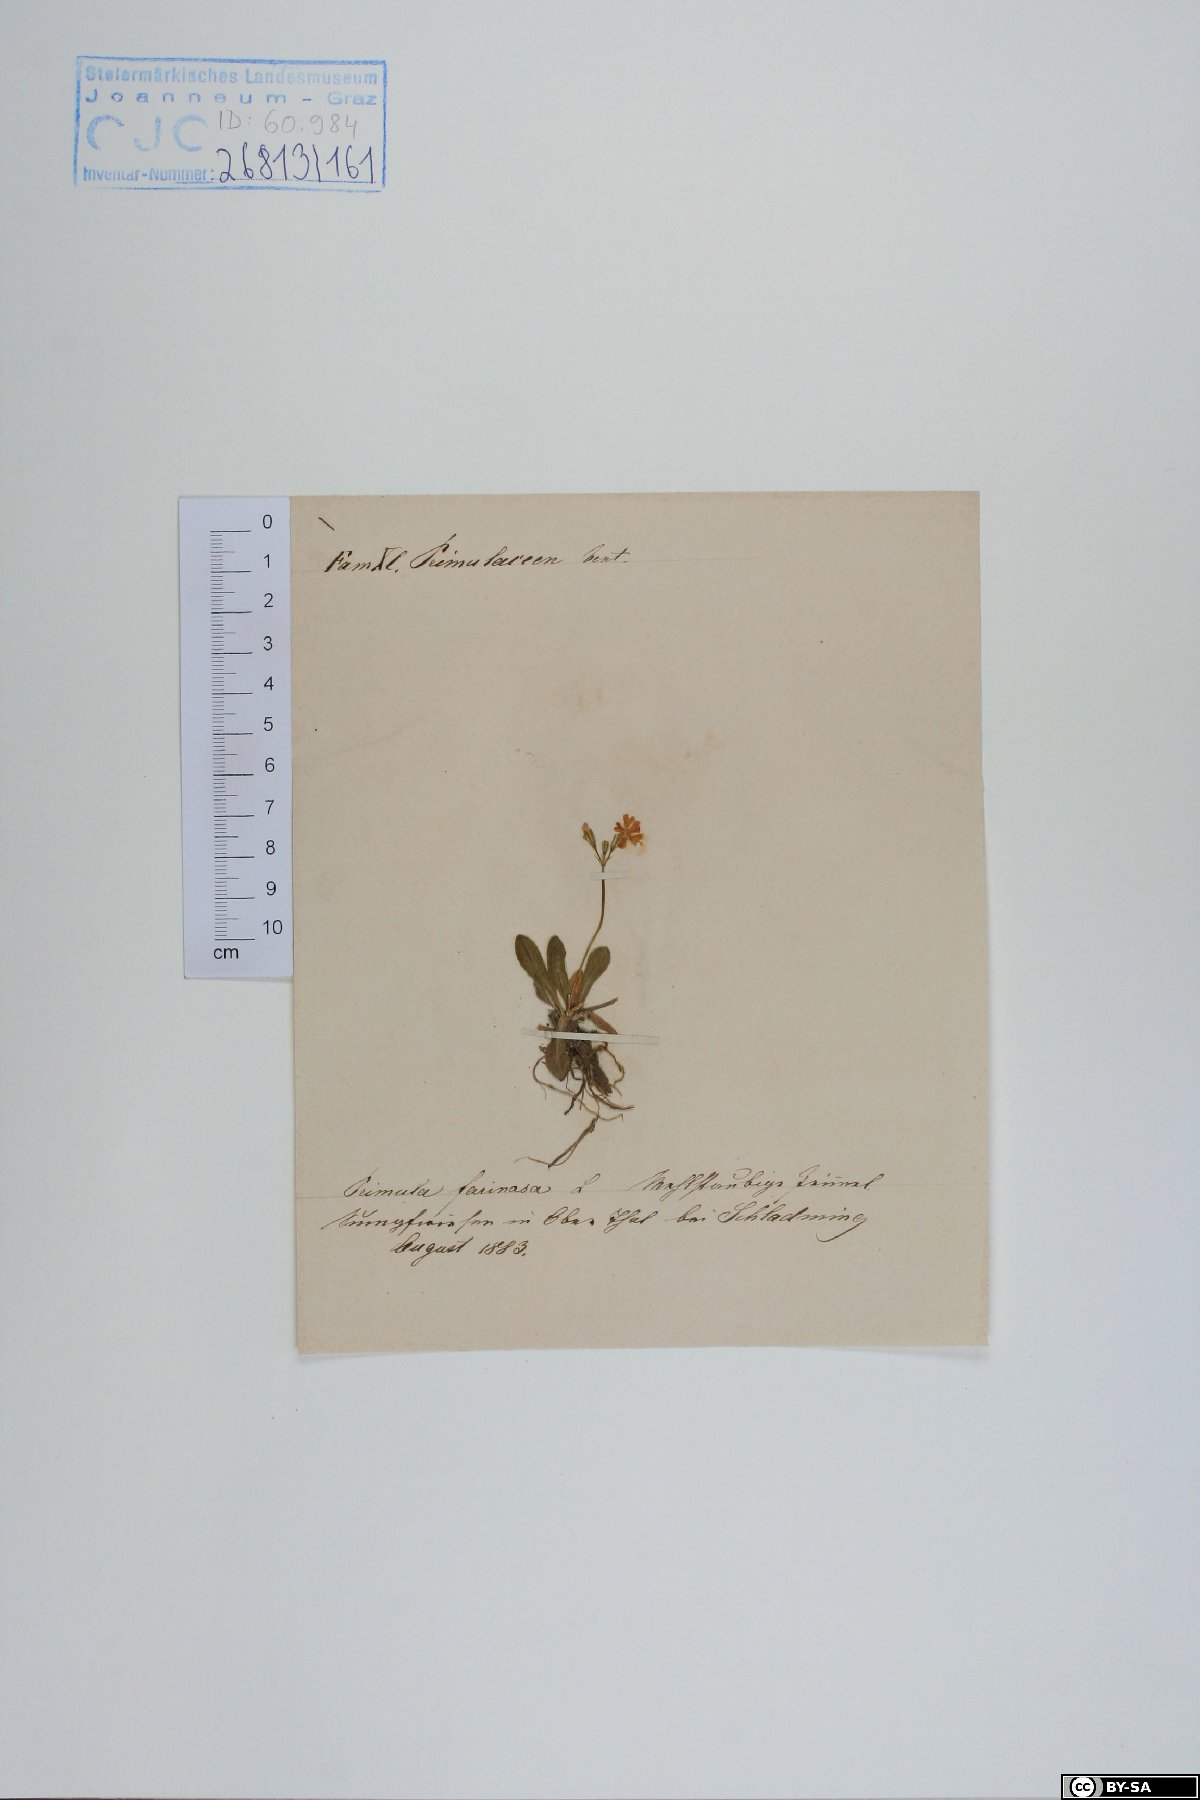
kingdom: Plantae
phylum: Tracheophyta
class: Magnoliopsida
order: Ericales
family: Primulaceae
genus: Primula
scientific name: Primula farinosa
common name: Bird's-eye primrose
